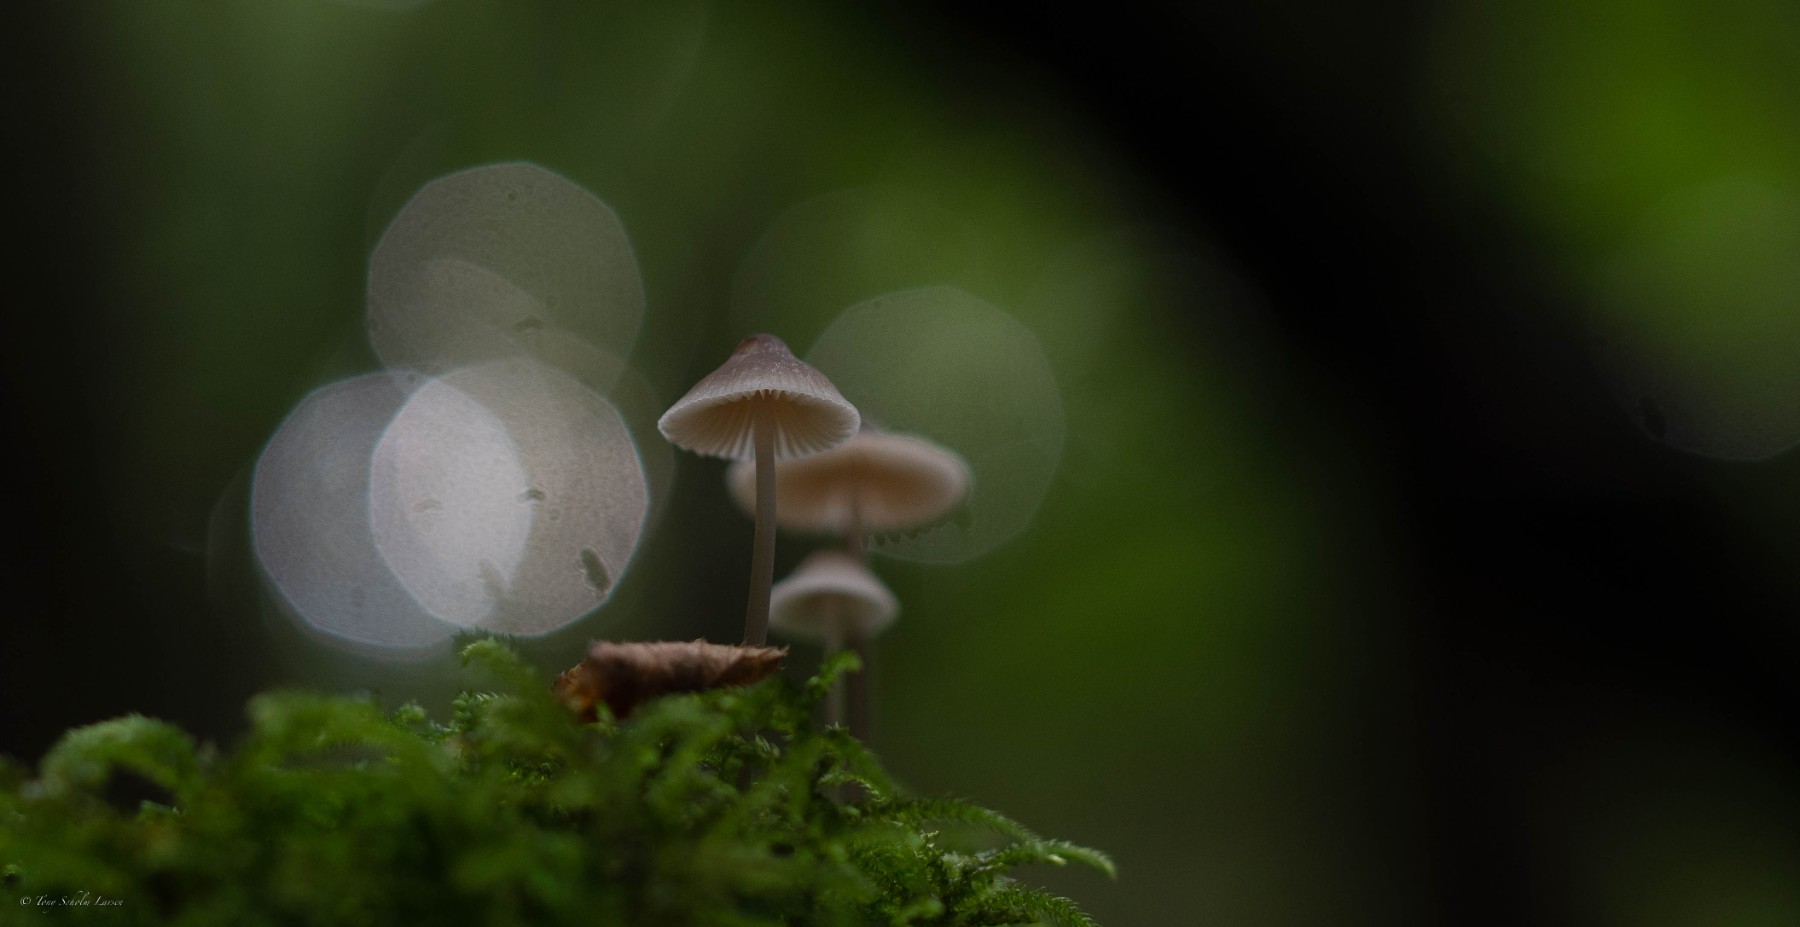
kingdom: Fungi
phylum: Basidiomycota
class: Agaricomycetes
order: Agaricales
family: Mycenaceae
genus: Mycena
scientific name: Mycena
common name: huesvamp
